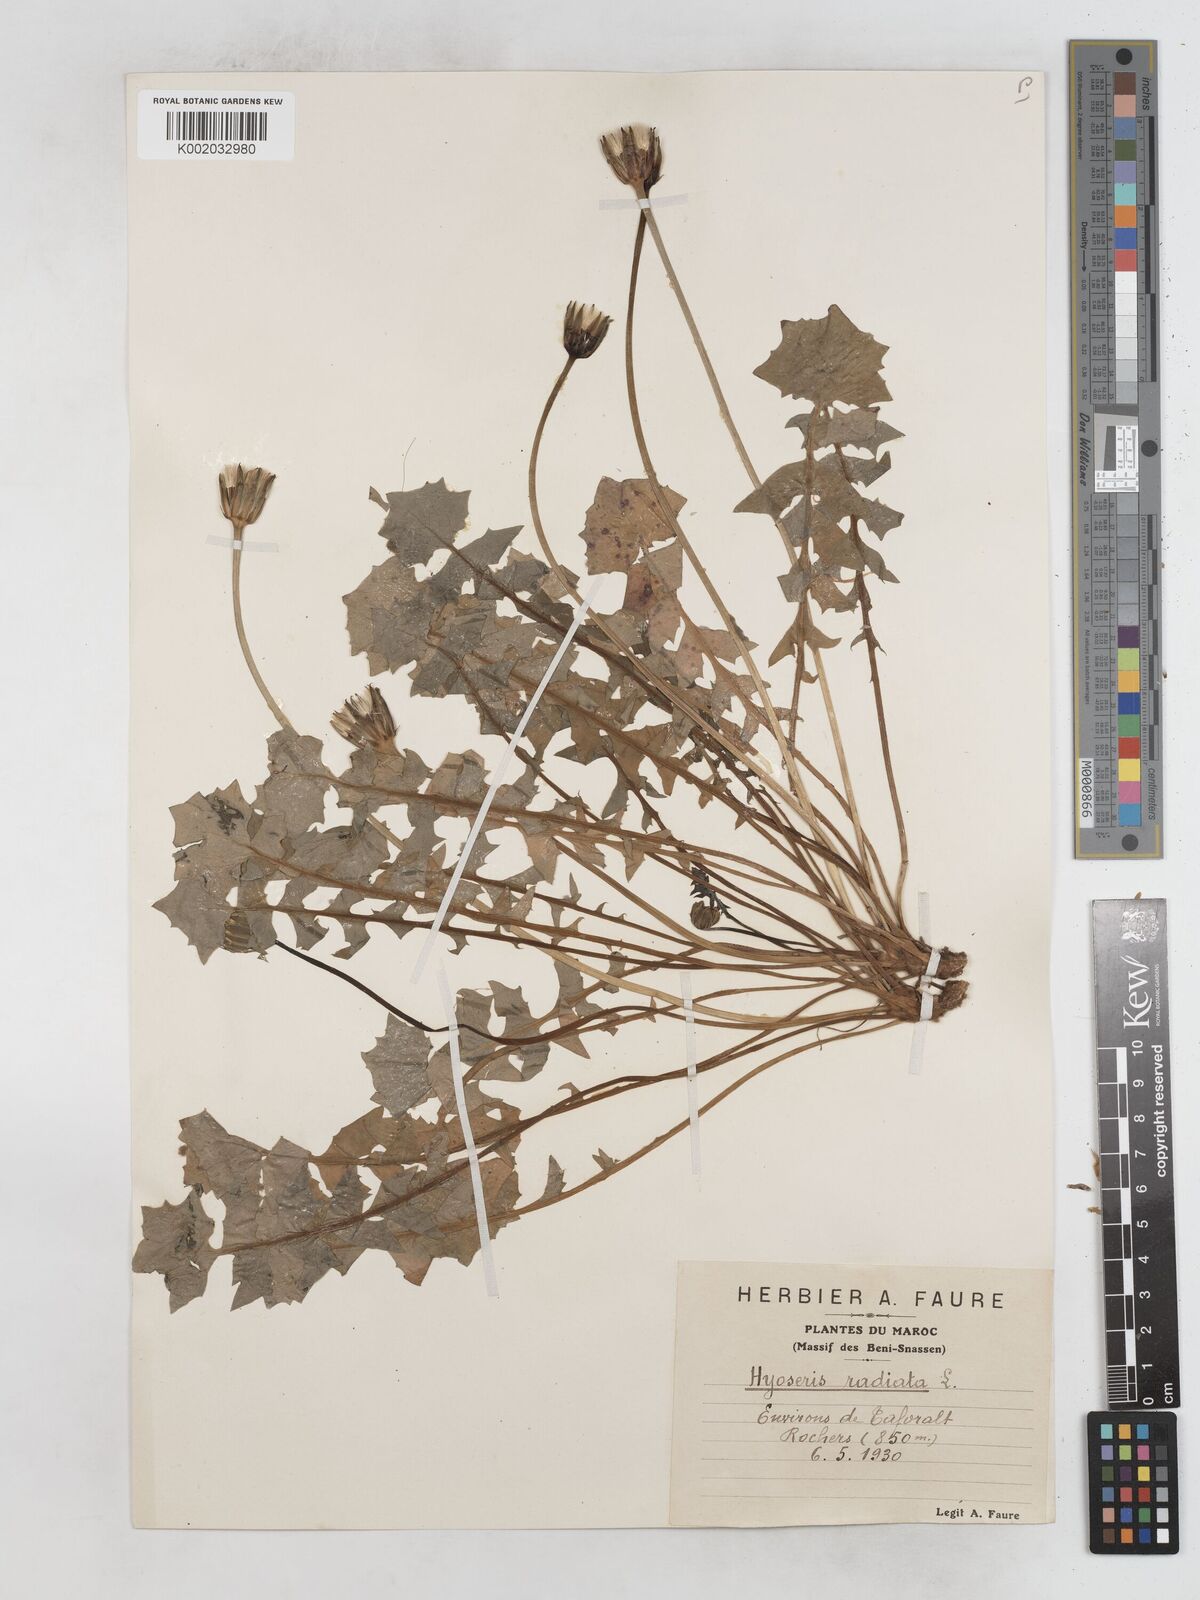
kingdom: Plantae
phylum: Tracheophyta
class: Magnoliopsida
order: Asterales
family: Asteraceae
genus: Hyoseris
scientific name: Hyoseris radiata
